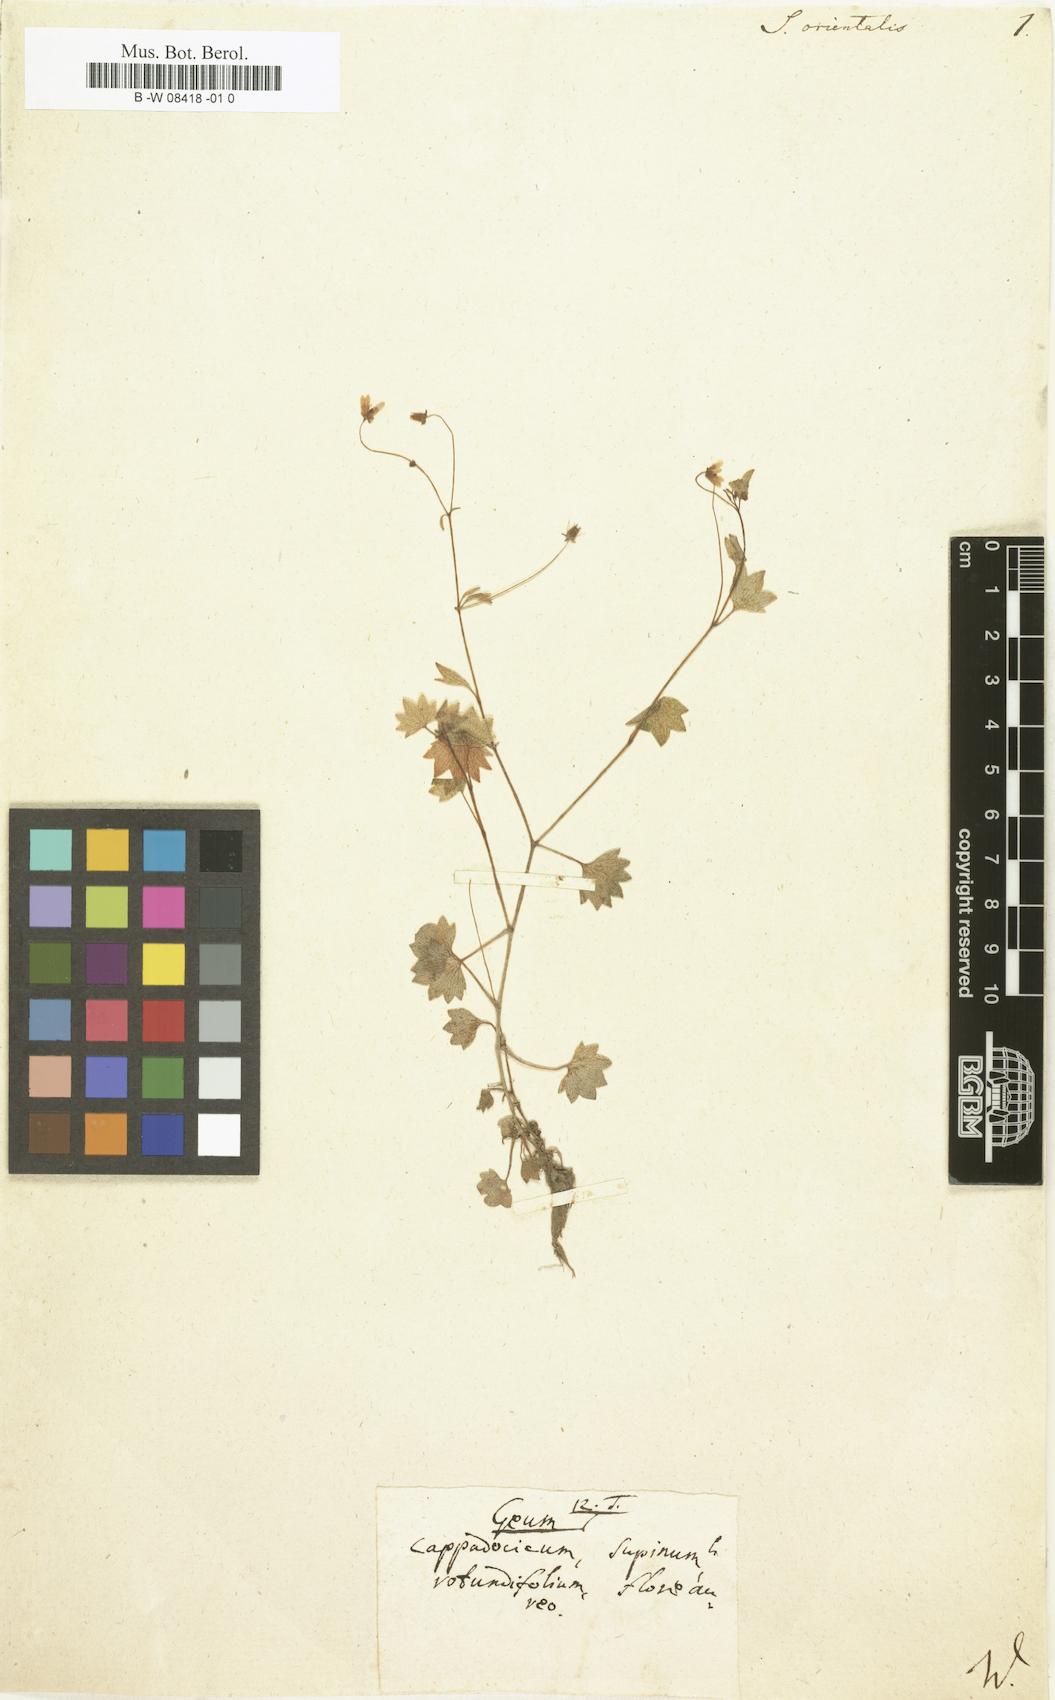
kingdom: Plantae
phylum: Tracheophyta
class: Magnoliopsida
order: Saxifragales
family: Saxifragaceae
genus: Saxifraga
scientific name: Saxifraga cymbalaria
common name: Celandine saxifrage
